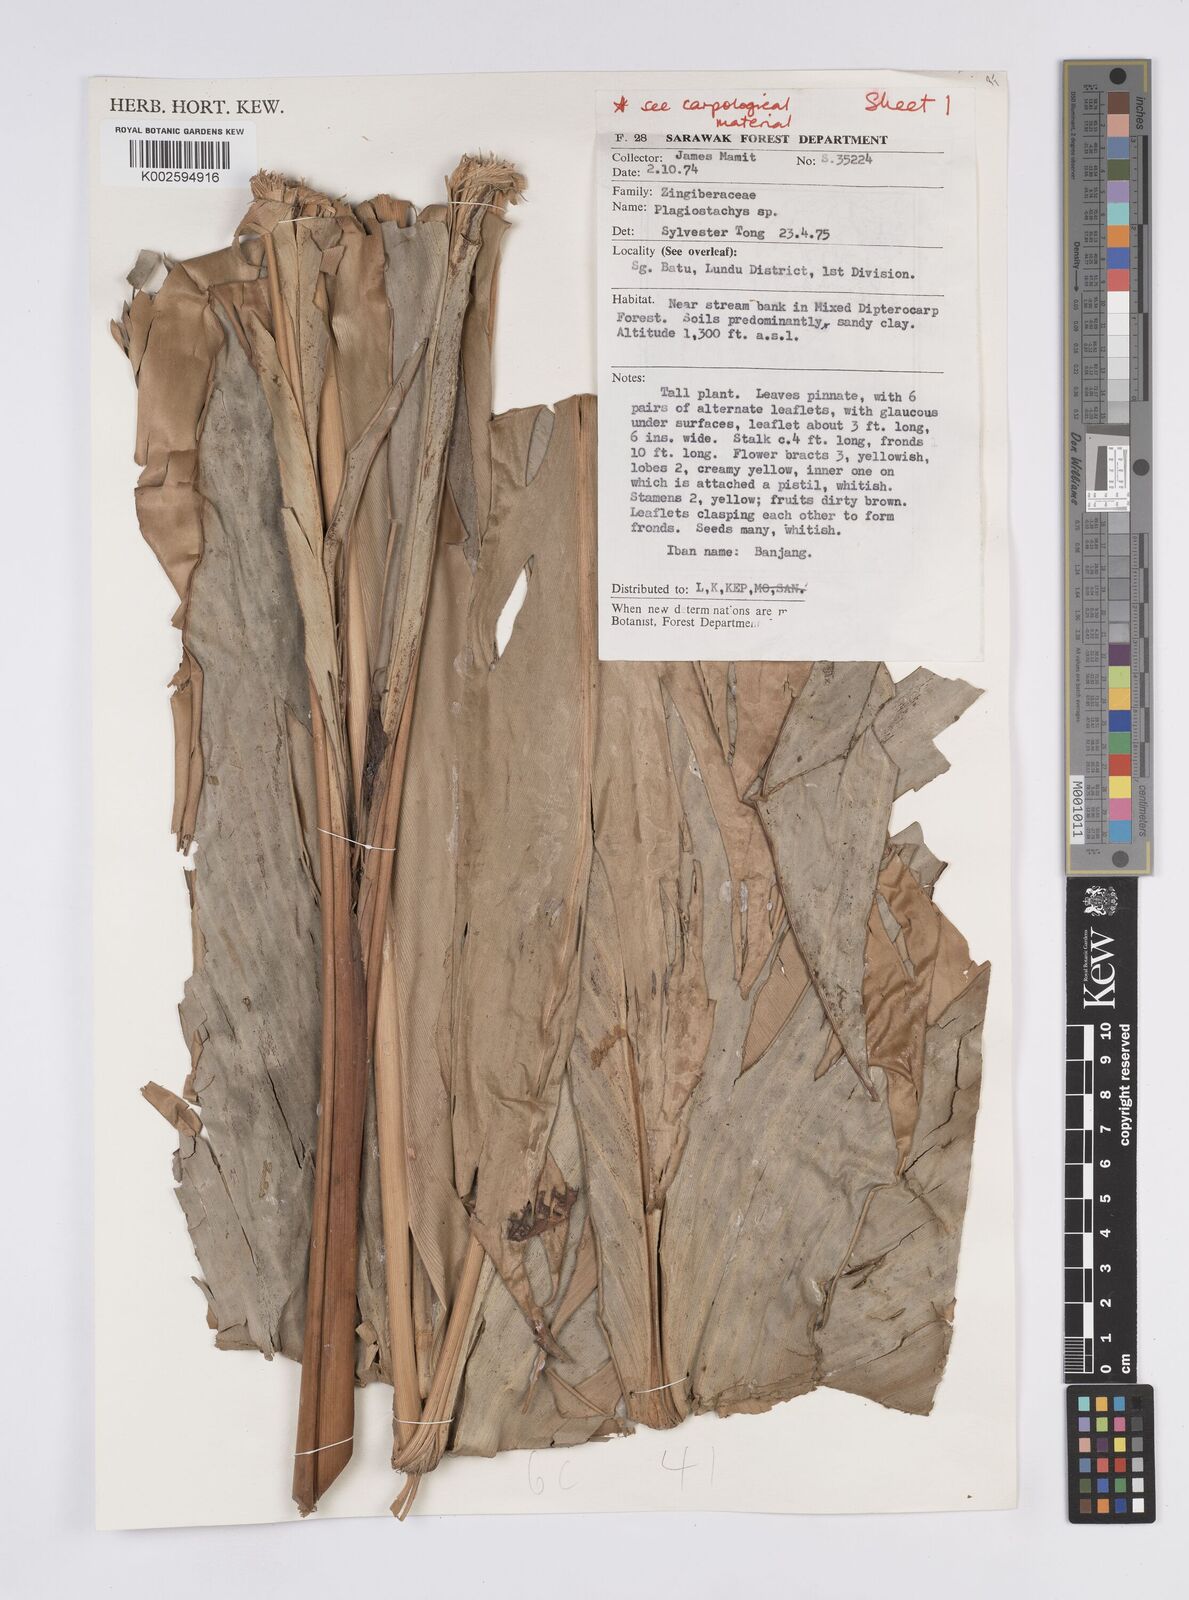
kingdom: Plantae
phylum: Tracheophyta
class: Liliopsida
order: Zingiberales
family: Zingiberaceae
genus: Plagiostachys
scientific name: Plagiostachys
